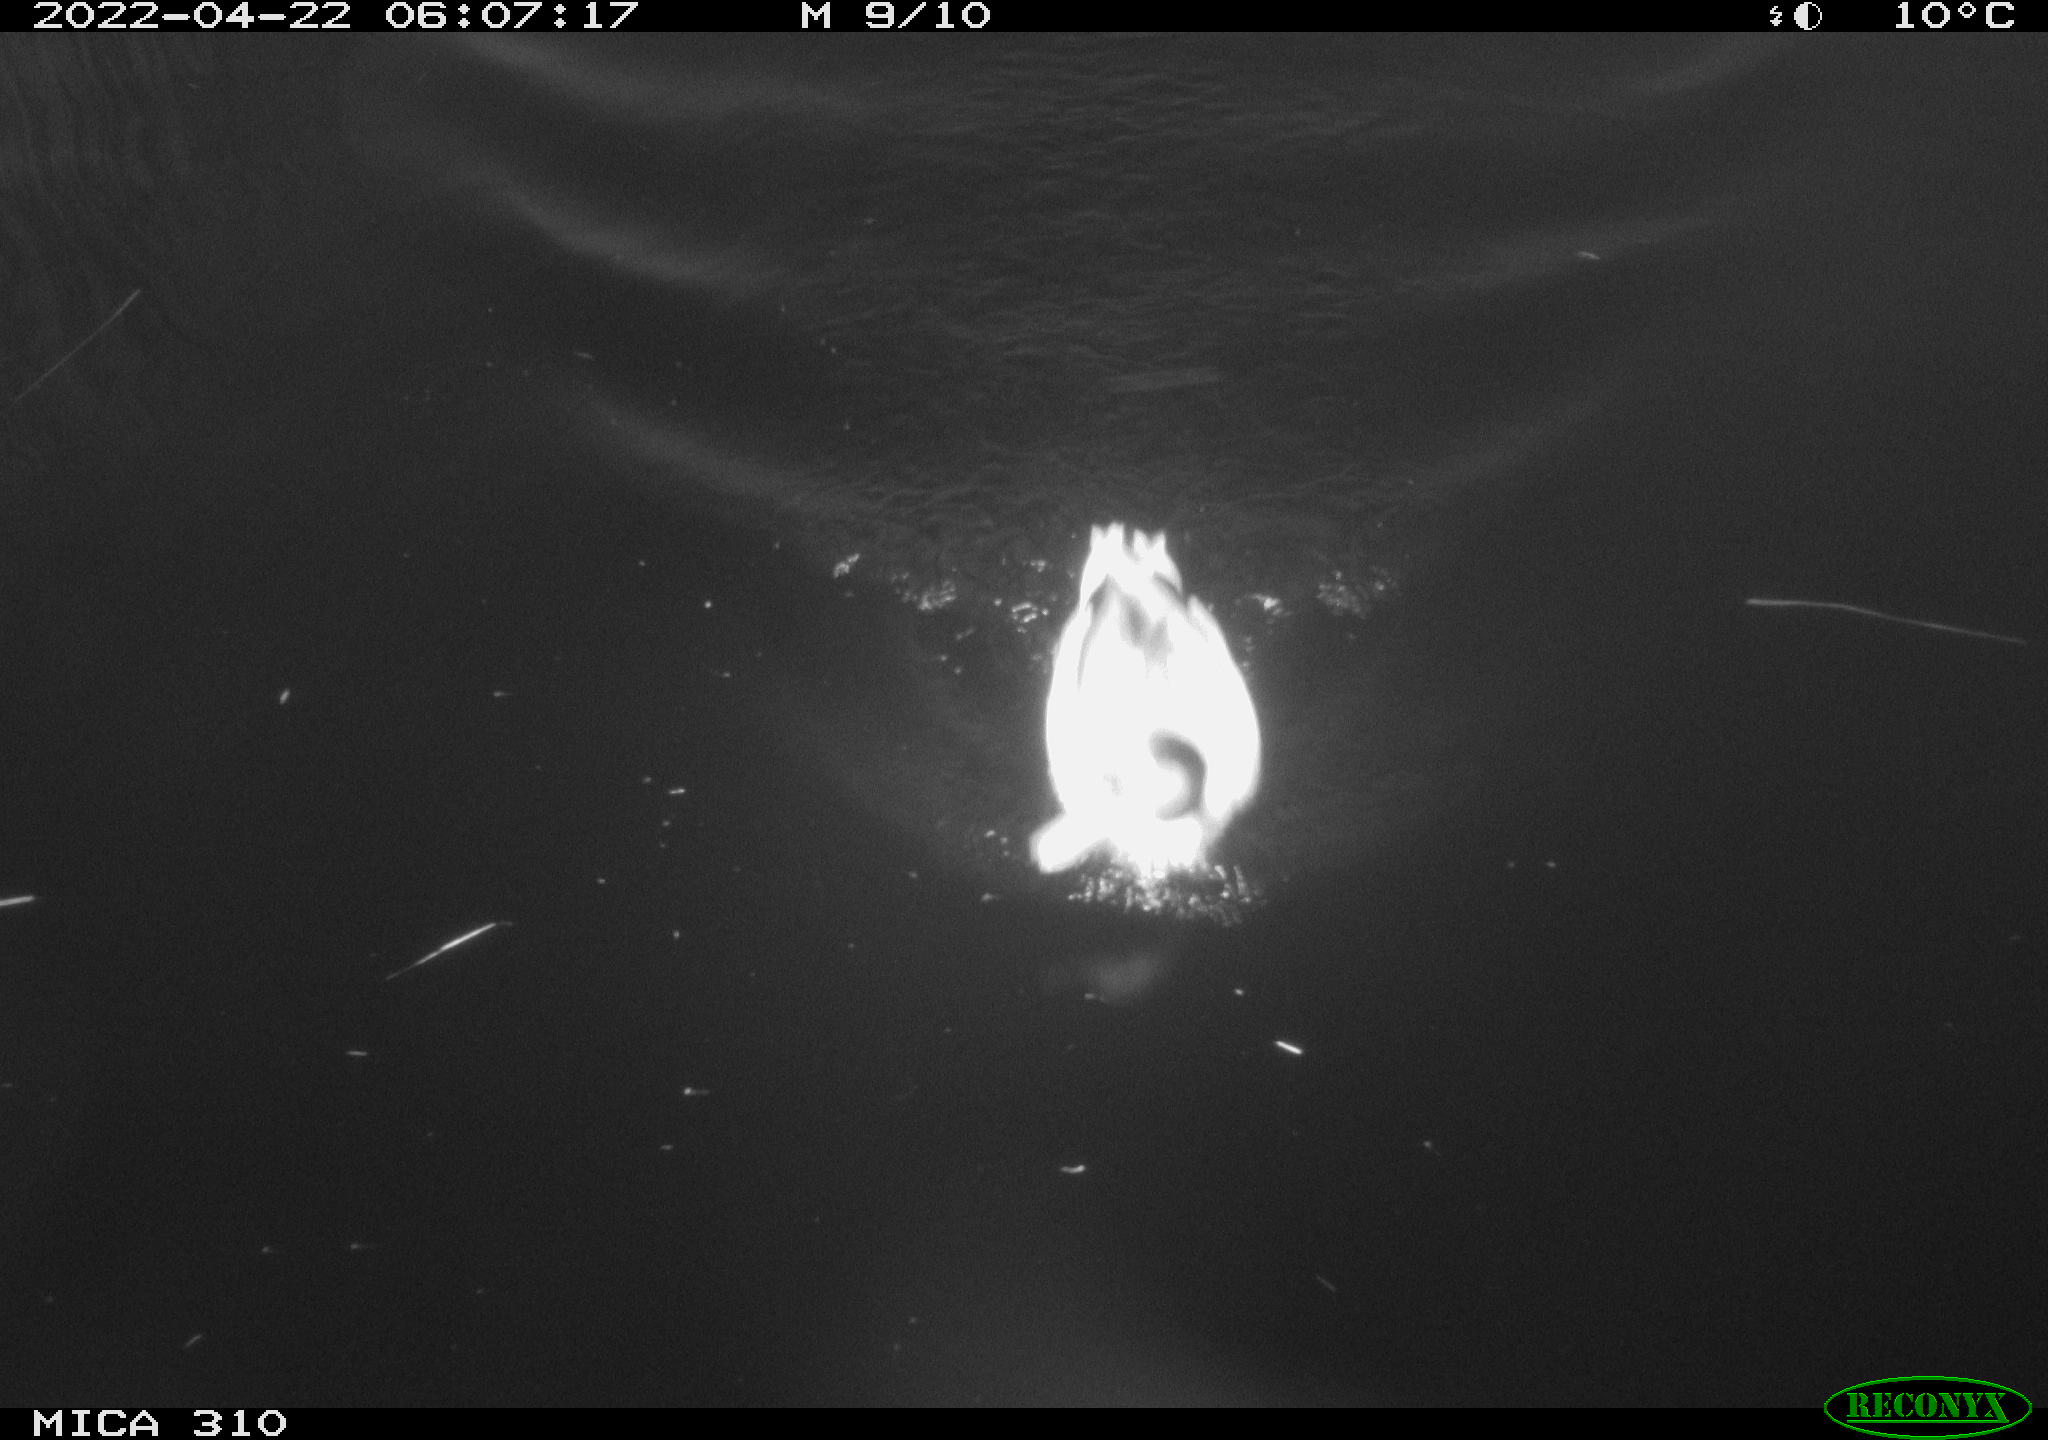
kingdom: Animalia
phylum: Chordata
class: Aves
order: Gruiformes
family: Rallidae
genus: Fulica
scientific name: Fulica atra
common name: Eurasian coot
